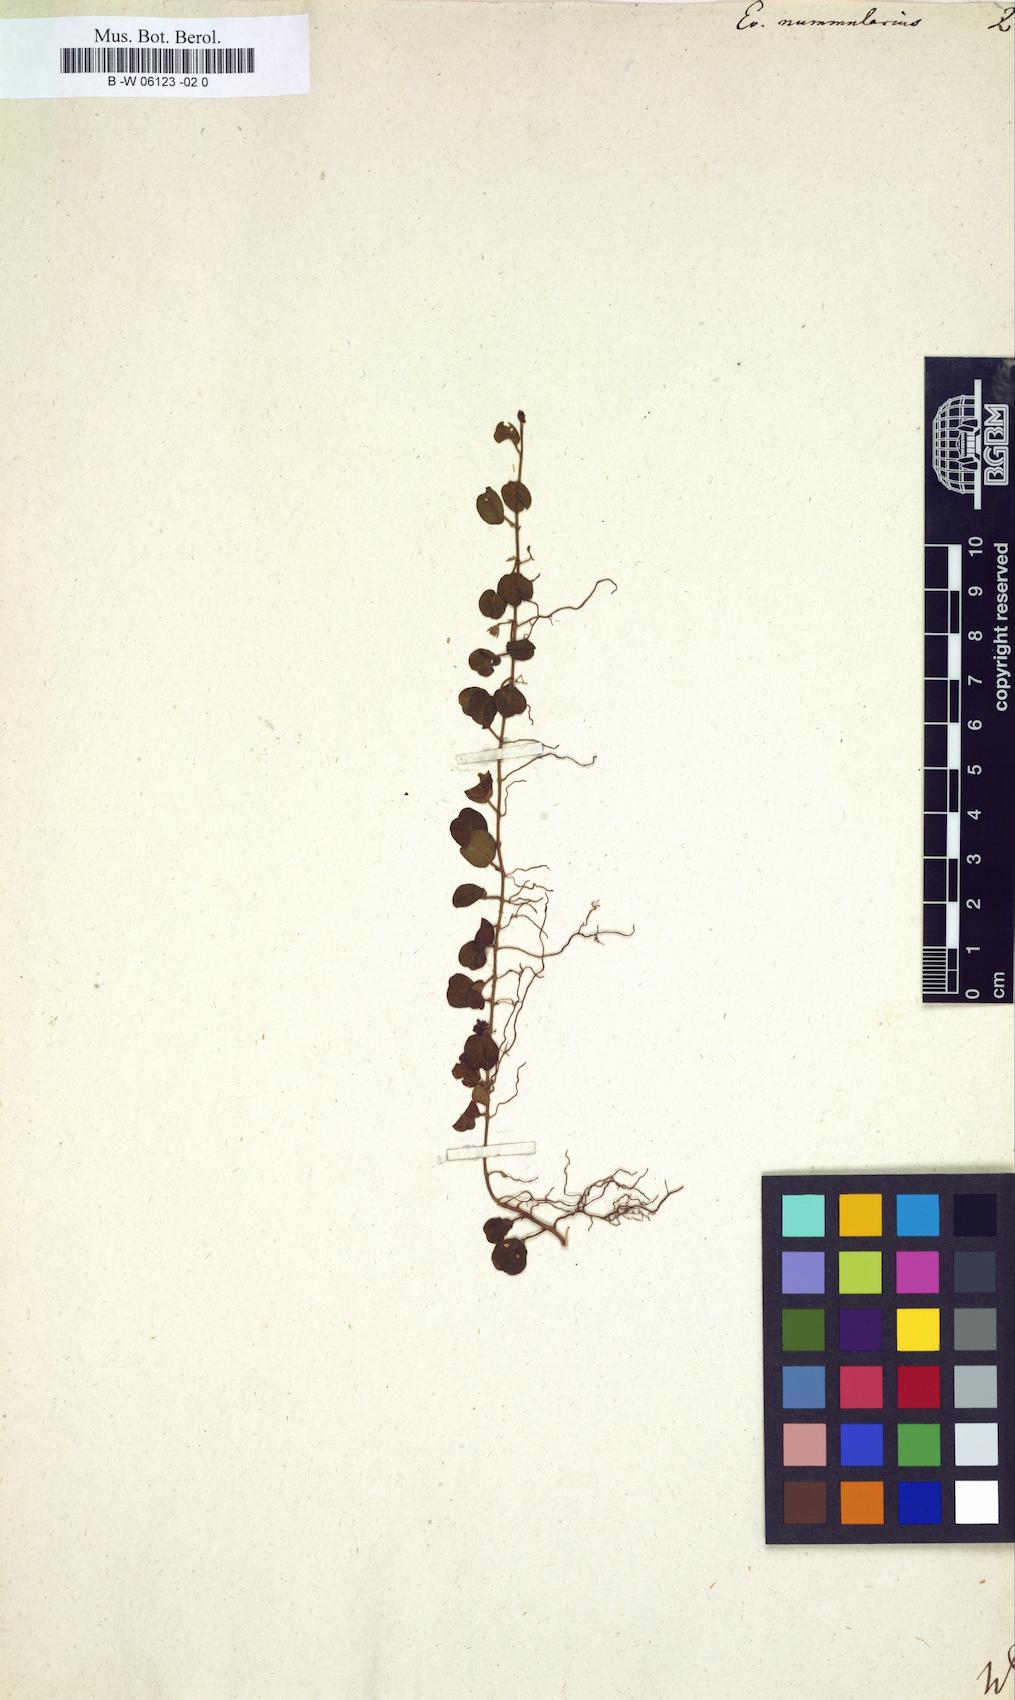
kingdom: Plantae
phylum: Tracheophyta
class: Magnoliopsida
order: Solanales
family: Convolvulaceae
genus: Evolvulus
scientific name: Evolvulus nummularius
